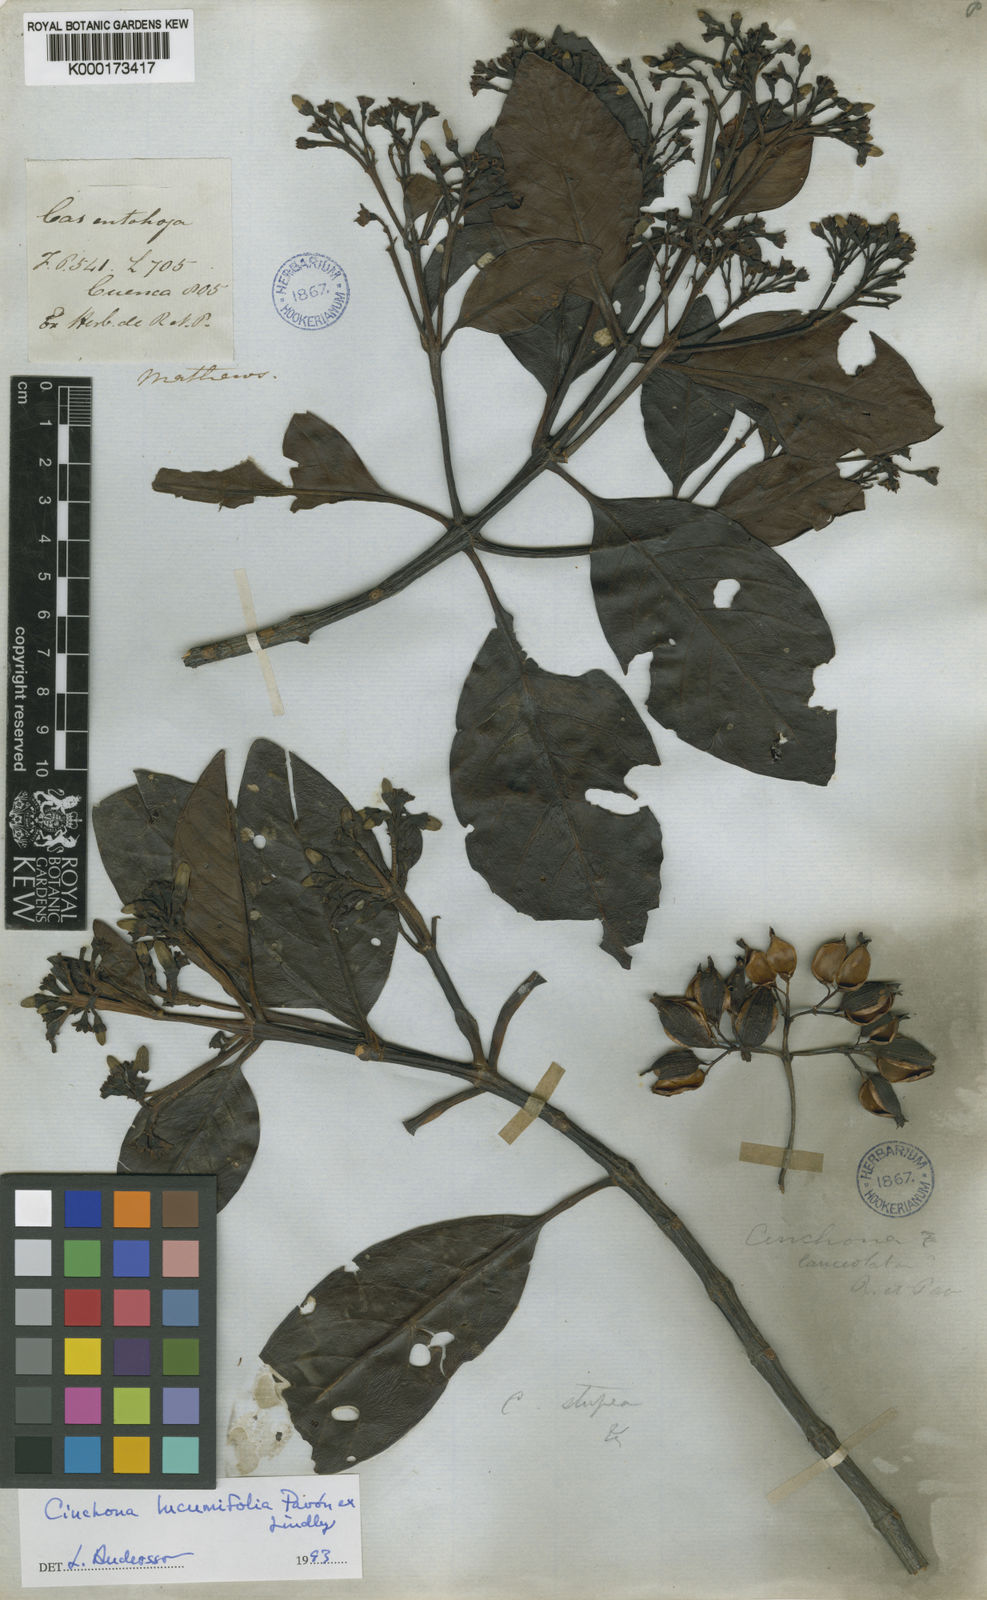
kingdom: Plantae
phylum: Tracheophyta
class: Magnoliopsida
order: Gentianales
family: Rubiaceae
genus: Cinchona
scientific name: Cinchona lucumifolia
